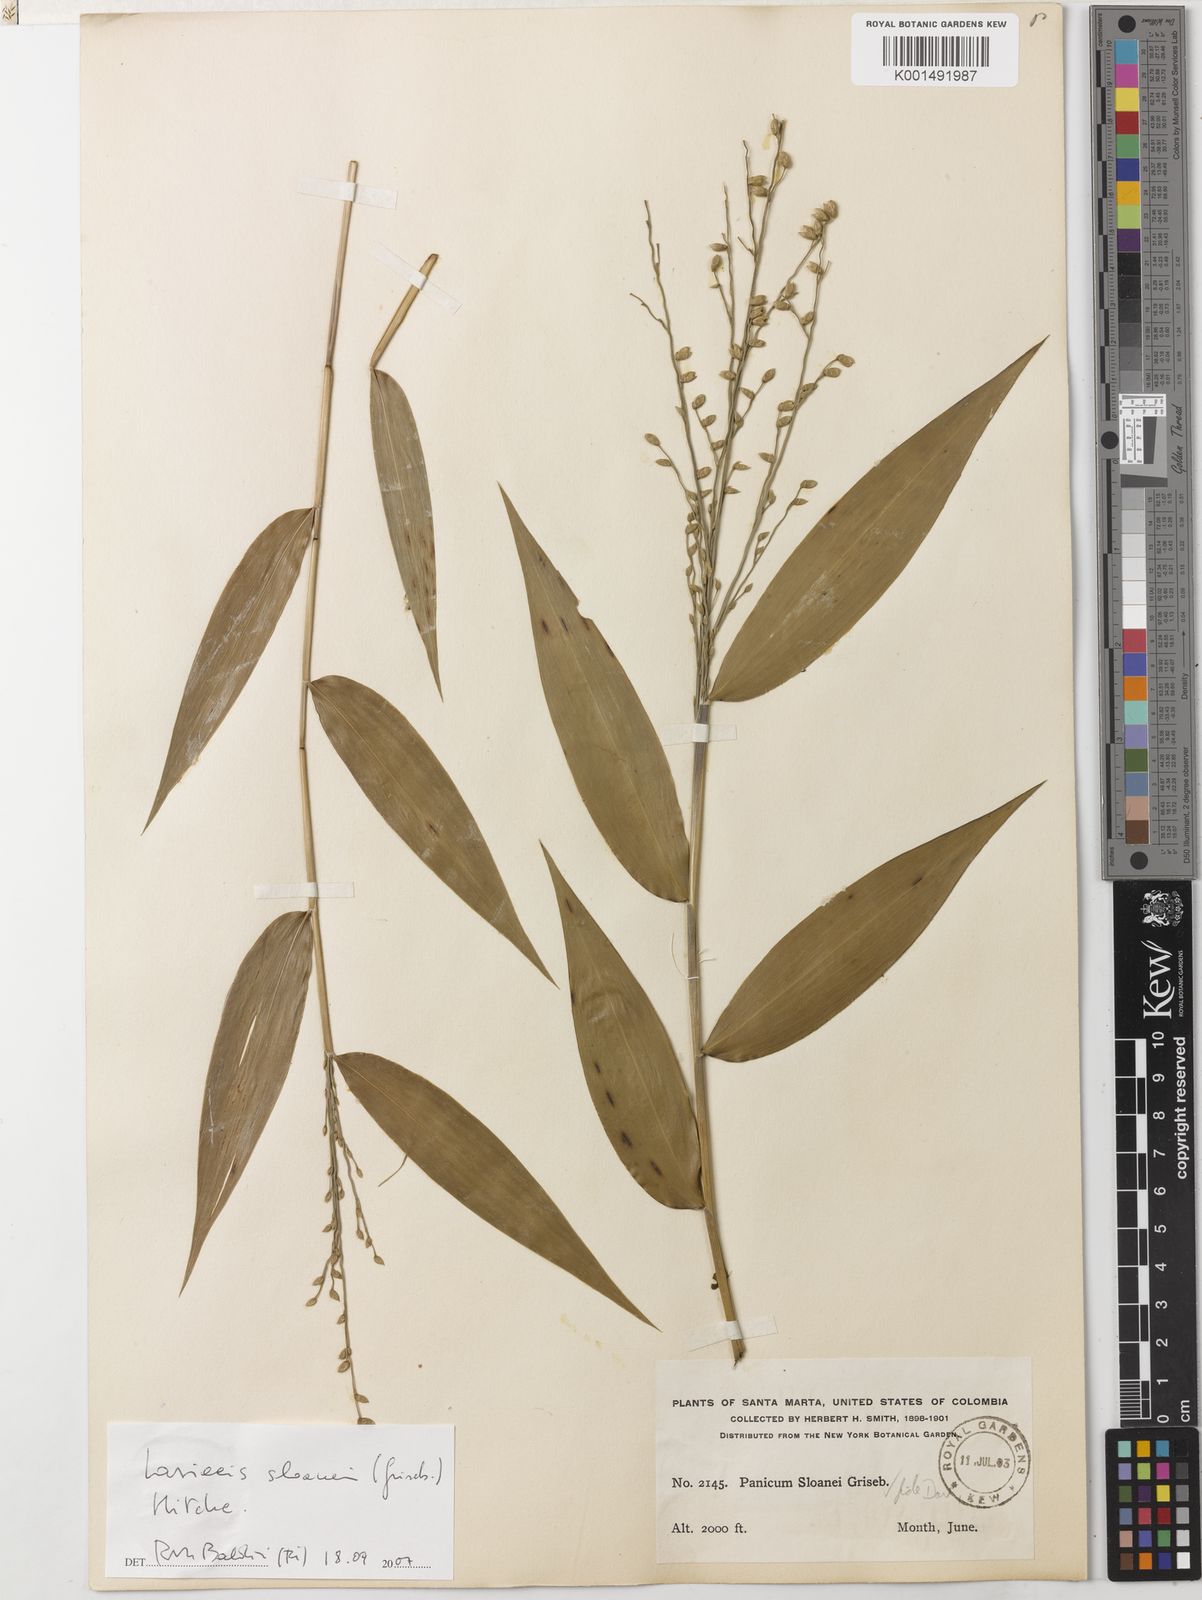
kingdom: Plantae
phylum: Tracheophyta
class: Liliopsida
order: Poales
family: Poaceae
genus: Lasiacis
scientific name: Lasiacis sloanei
